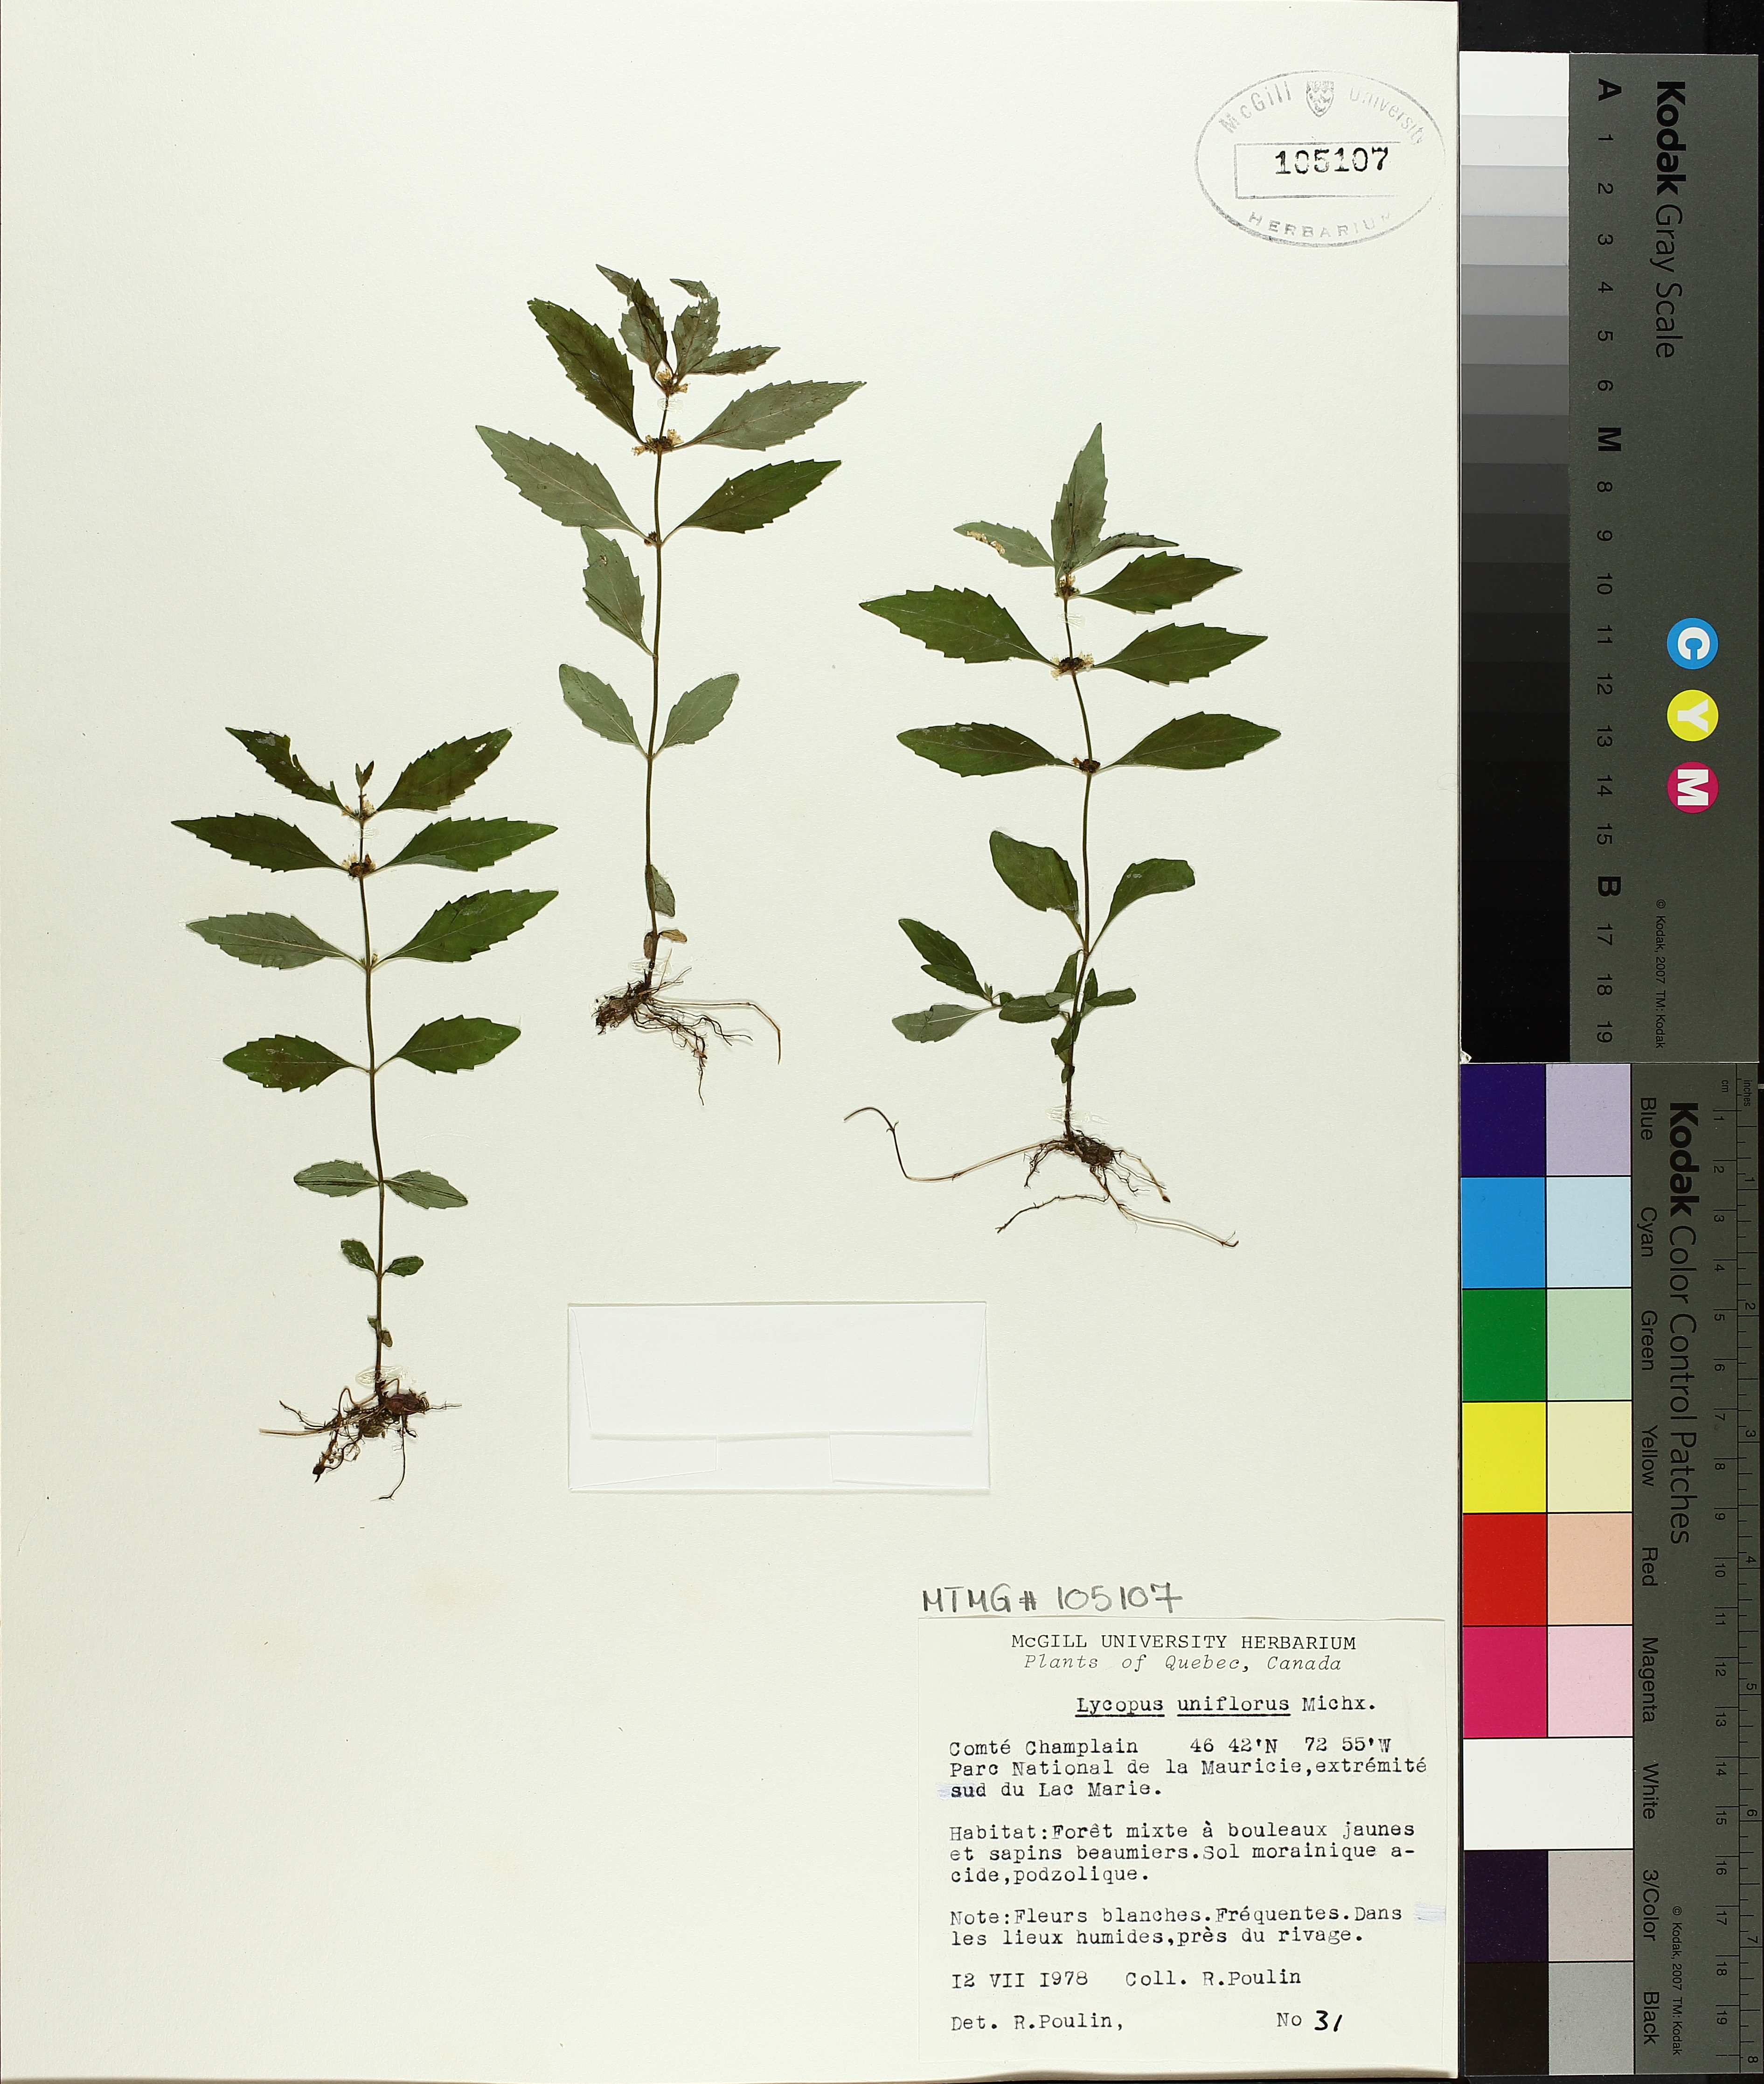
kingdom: Plantae
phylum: Tracheophyta
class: Magnoliopsida
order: Lamiales
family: Lamiaceae
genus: Lycopus
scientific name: Lycopus uniflorus
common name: Northern bugleweed
